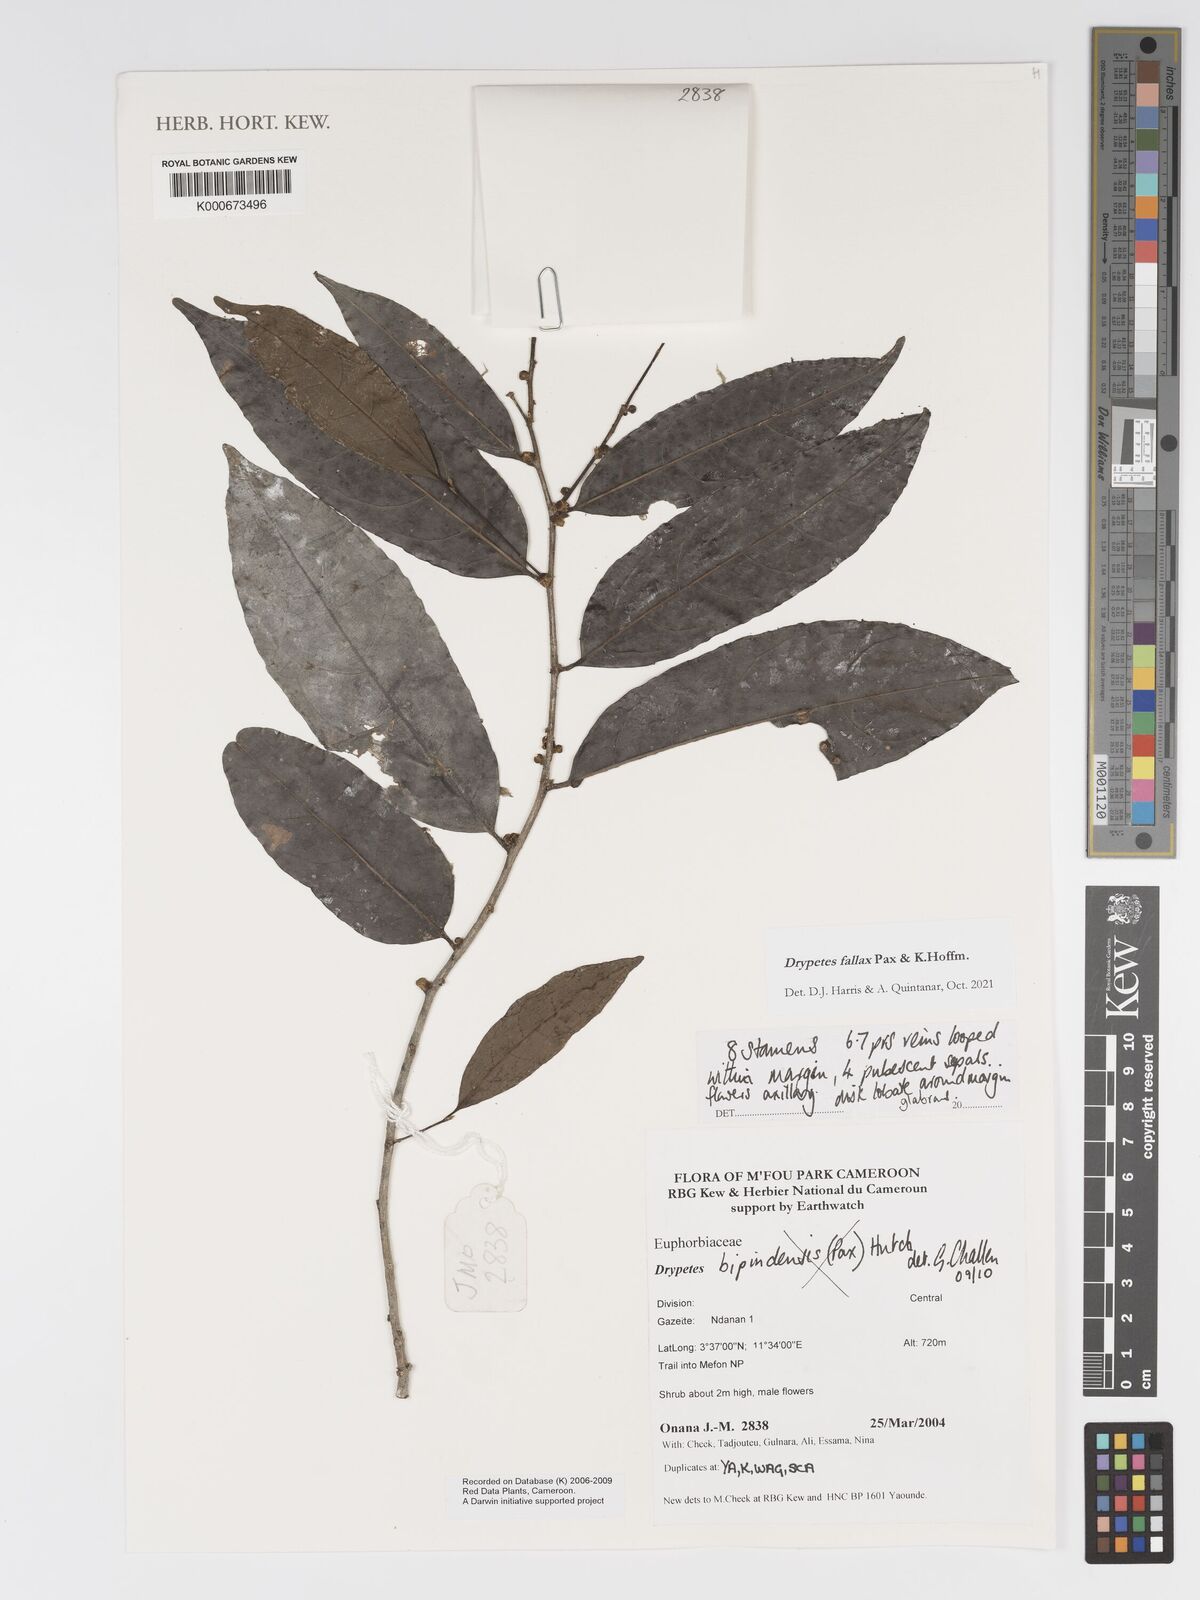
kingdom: Plantae
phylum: Tracheophyta
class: Magnoliopsida
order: Malpighiales
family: Putranjivaceae
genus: Drypetes
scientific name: Drypetes bipindensis
